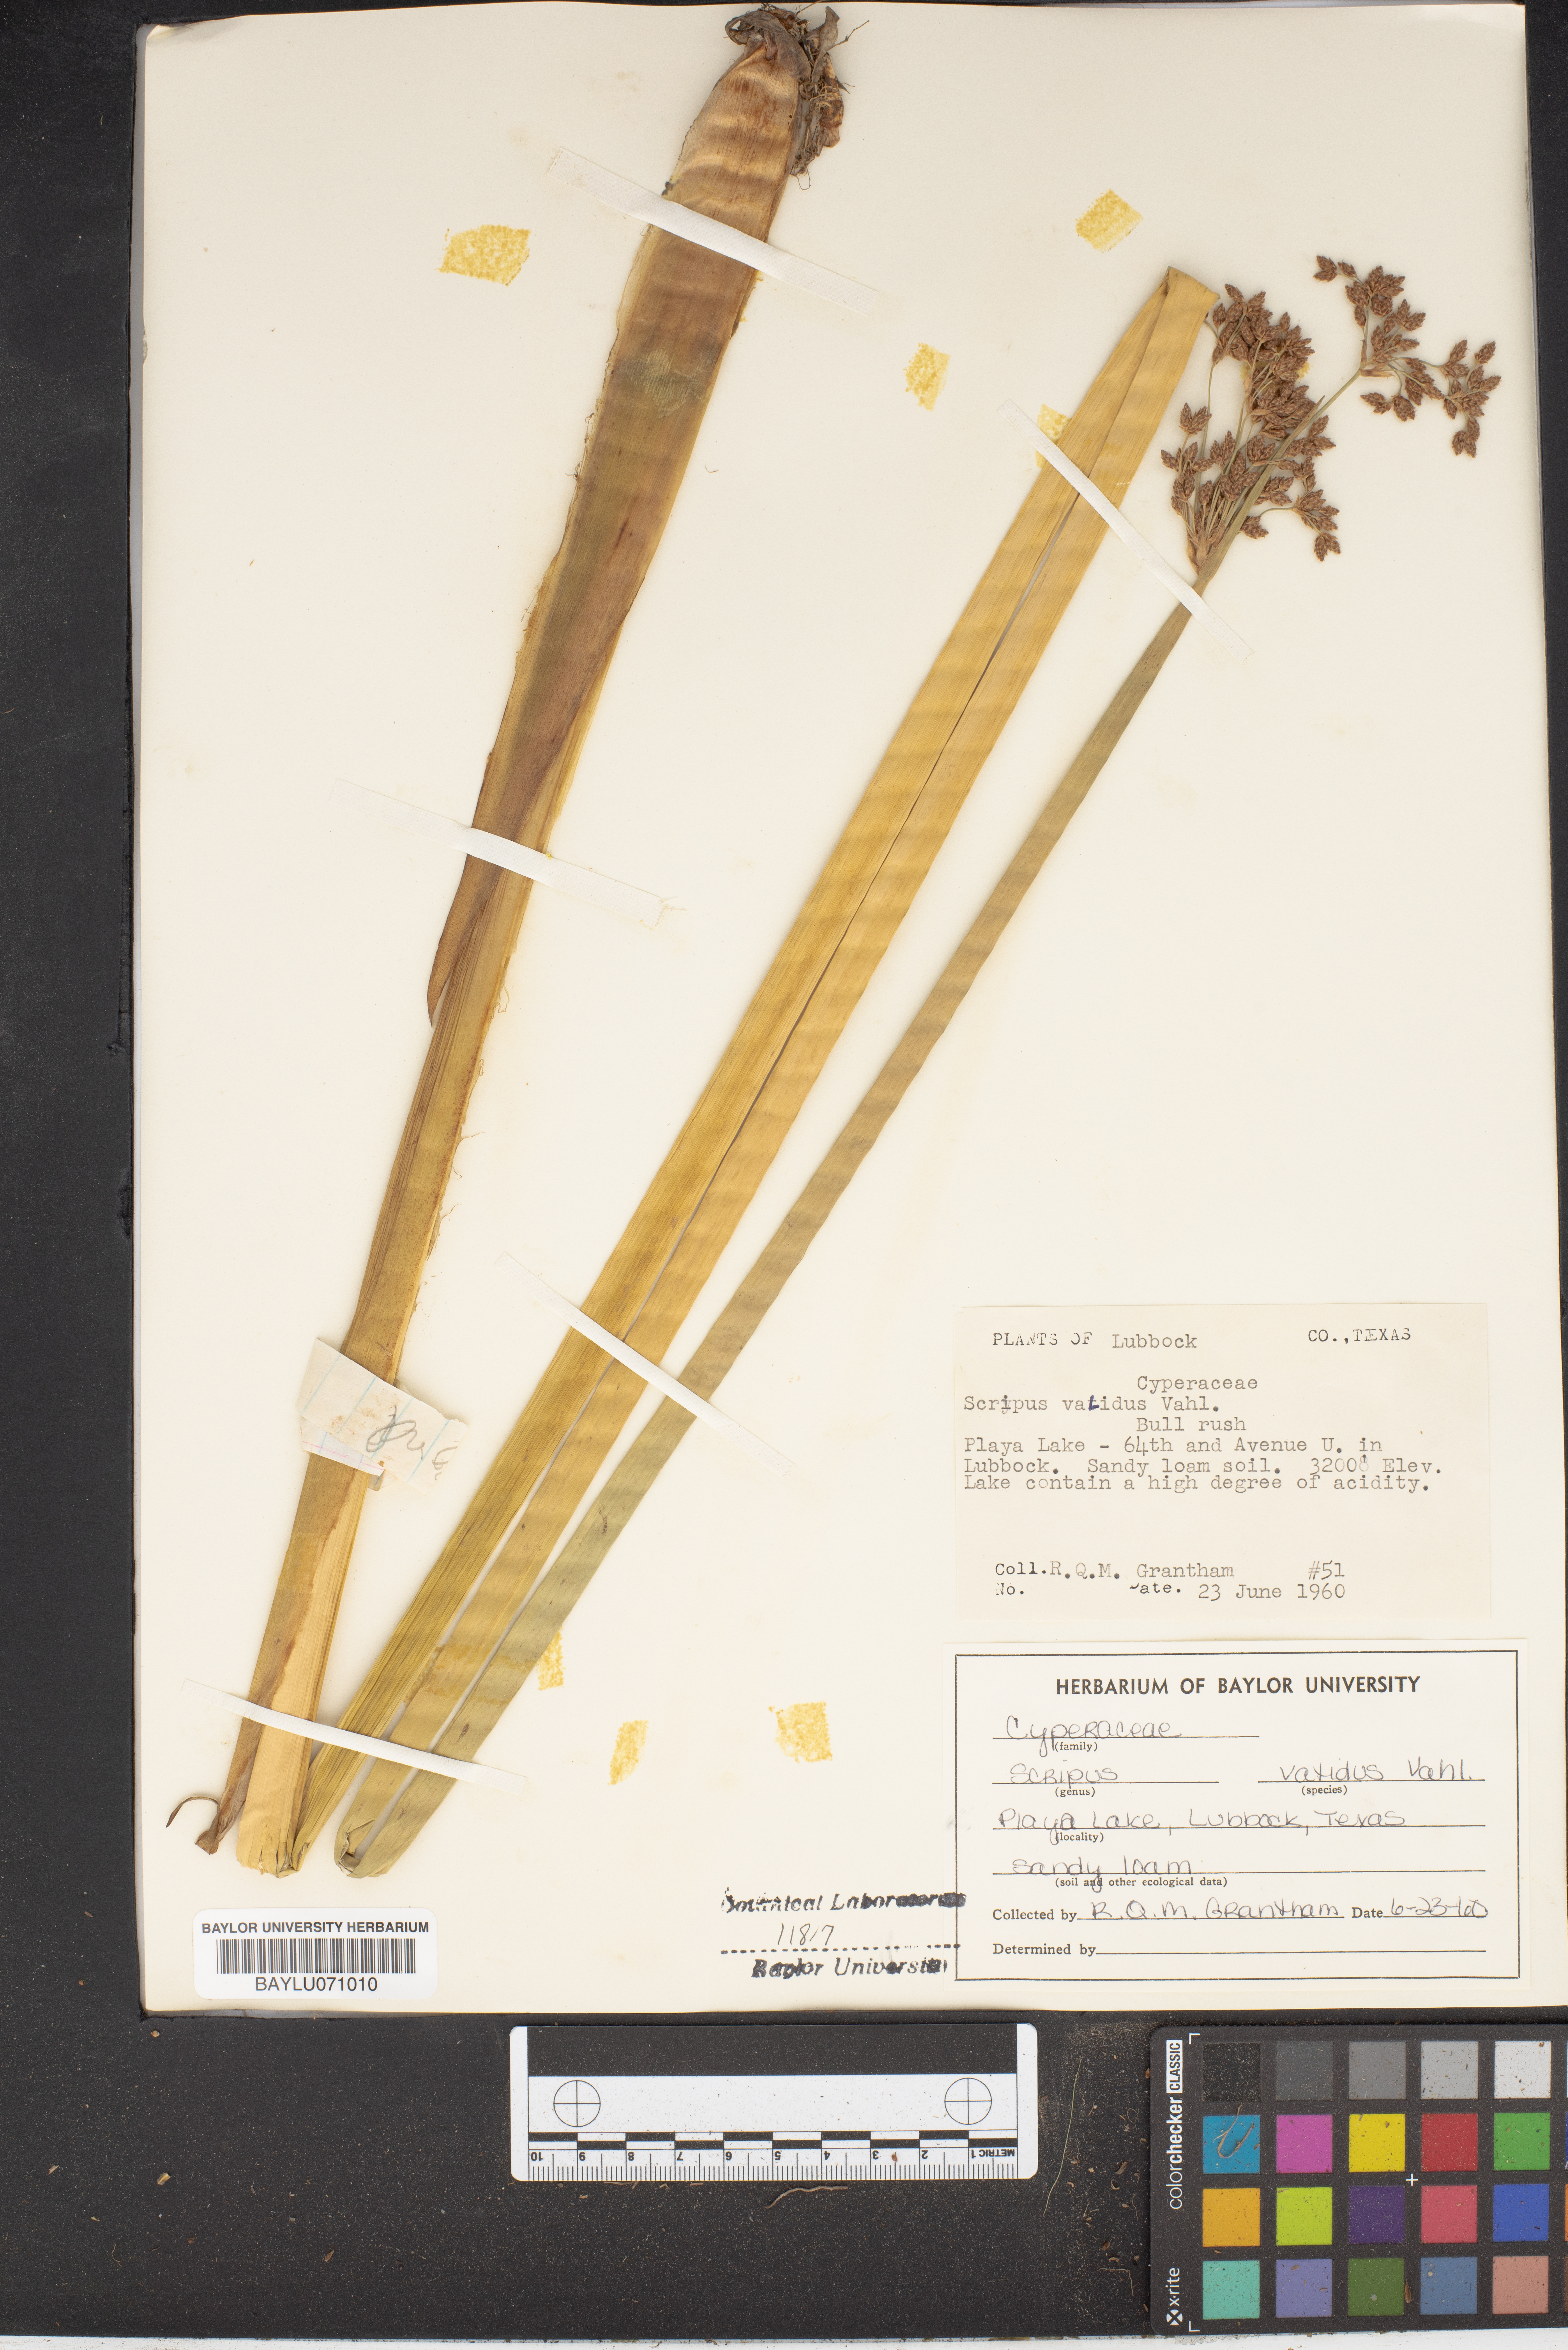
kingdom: Plantae
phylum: Tracheophyta
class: Liliopsida
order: Poales
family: Cyperaceae
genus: Schoenoplectus
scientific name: Schoenoplectus tabernaemontani
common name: Grey club-rush
